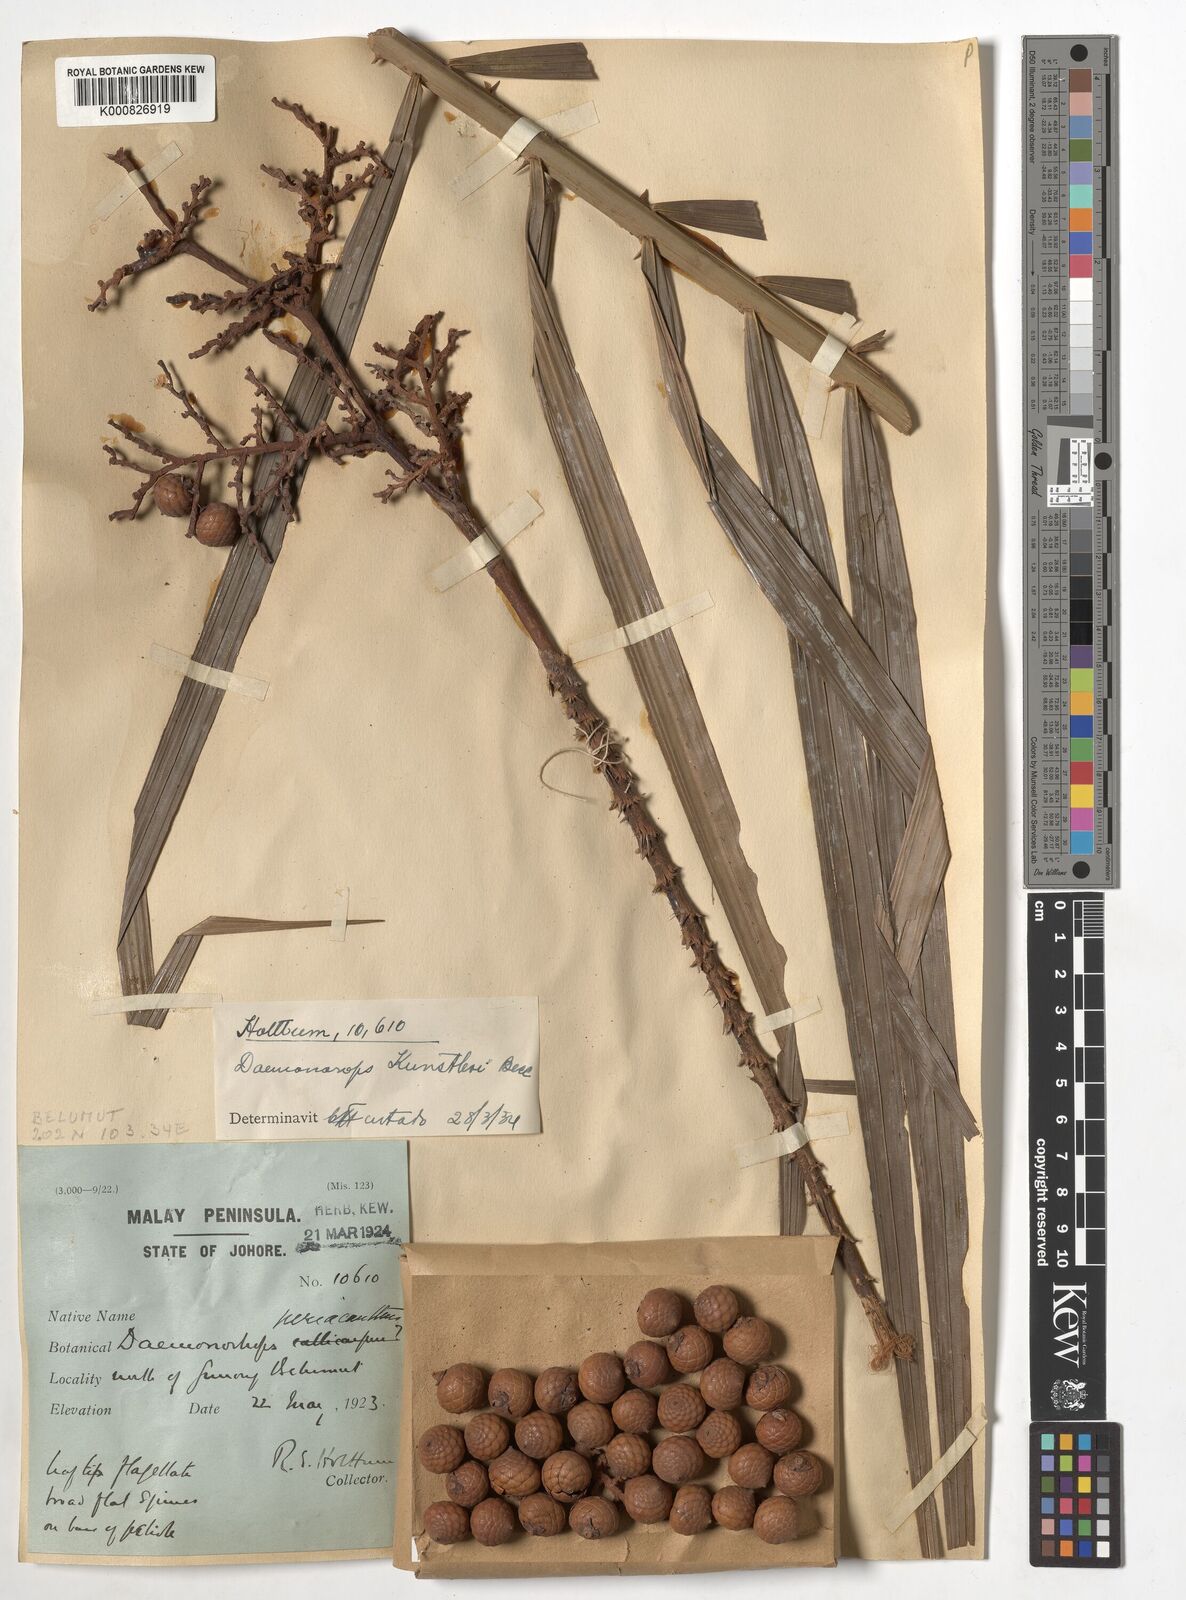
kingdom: Plantae
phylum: Tracheophyta
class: Liliopsida
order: Arecales
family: Arecaceae
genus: Calamus
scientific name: Calamus kunstleri
